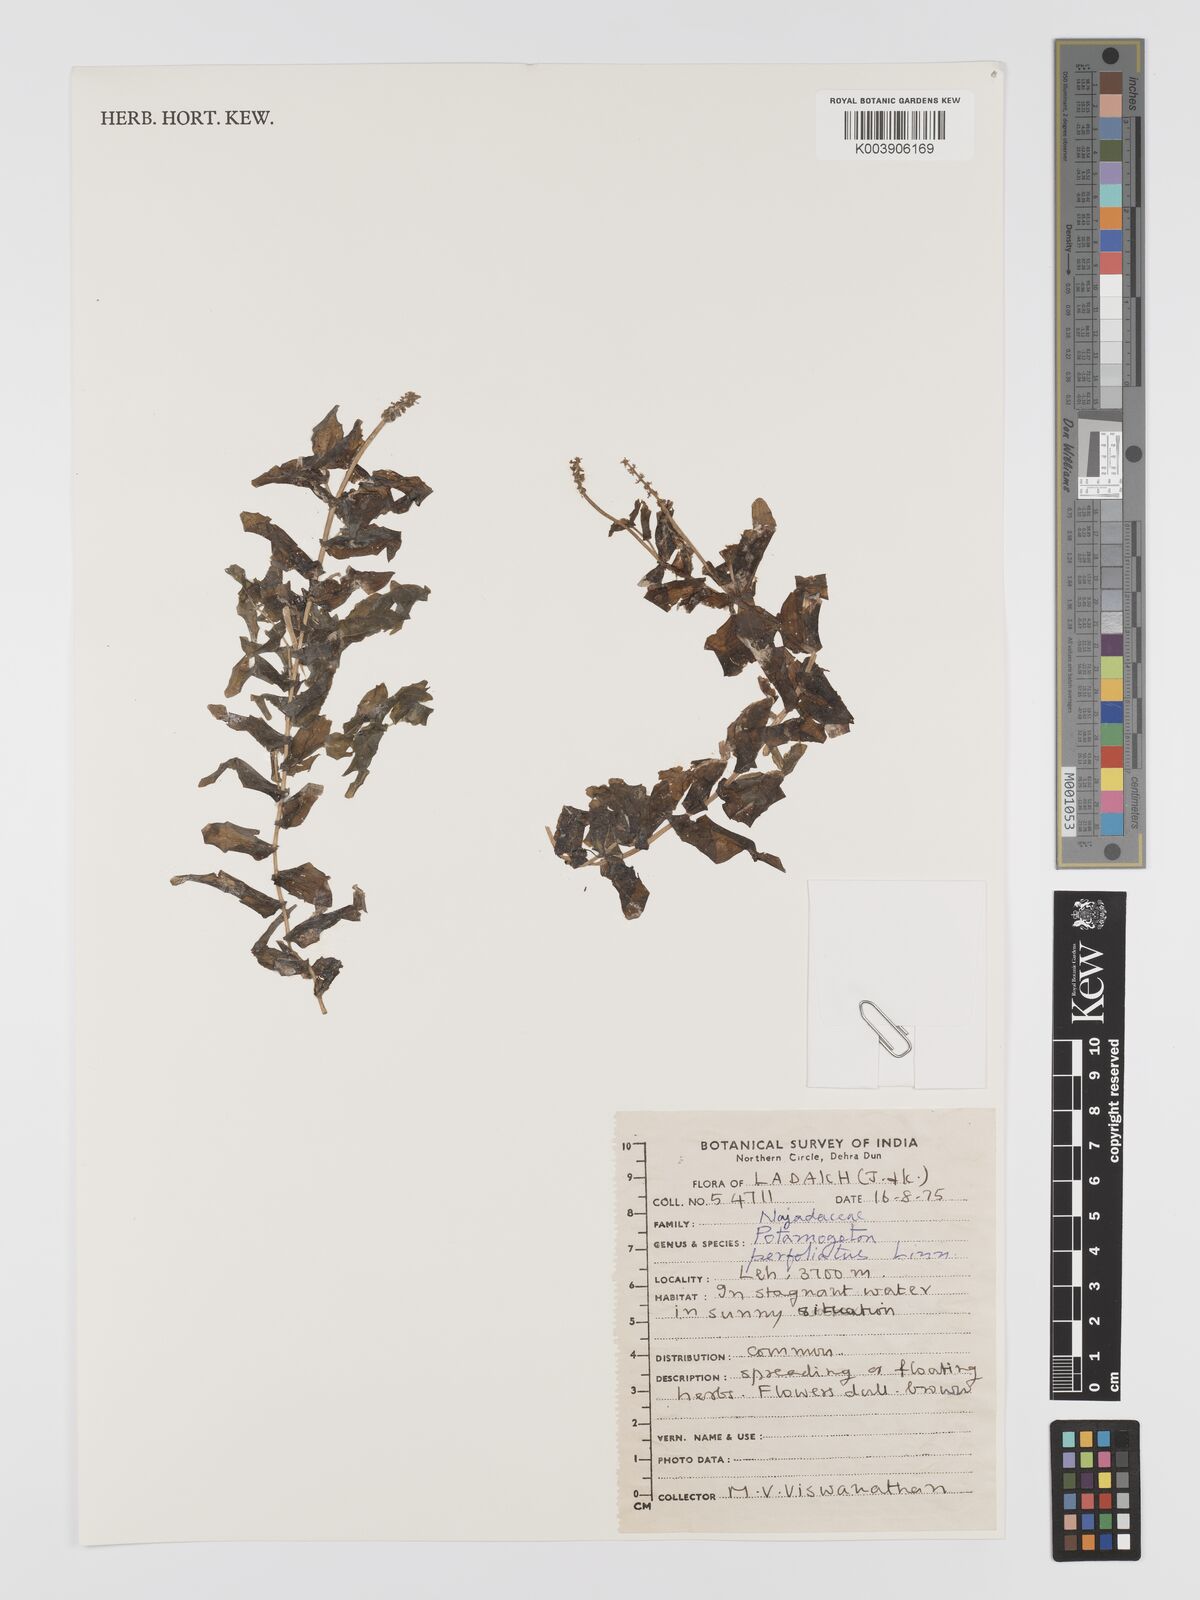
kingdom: Plantae
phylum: Tracheophyta
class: Liliopsida
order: Alismatales
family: Potamogetonaceae
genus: Potamogeton
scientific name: Potamogeton perfoliatus
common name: Perfoliate pondweed
